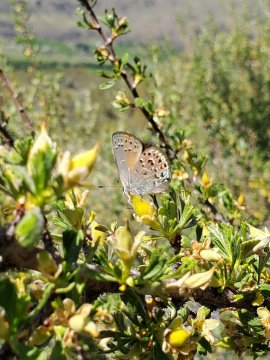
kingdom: Animalia
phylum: Arthropoda
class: Insecta
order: Lepidoptera
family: Lycaenidae
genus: Satyrium
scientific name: Satyrium behrii
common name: Behr's Hairstreak
